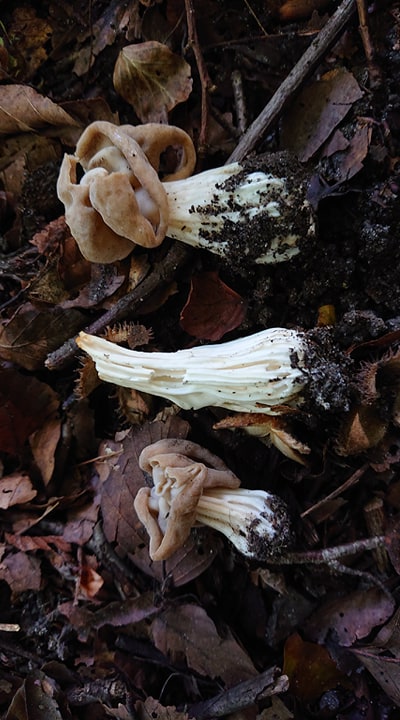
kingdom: Fungi
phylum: Ascomycota
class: Pezizomycetes
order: Pezizales
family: Helvellaceae
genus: Helvella
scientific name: Helvella crispa
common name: kruset foldhat
